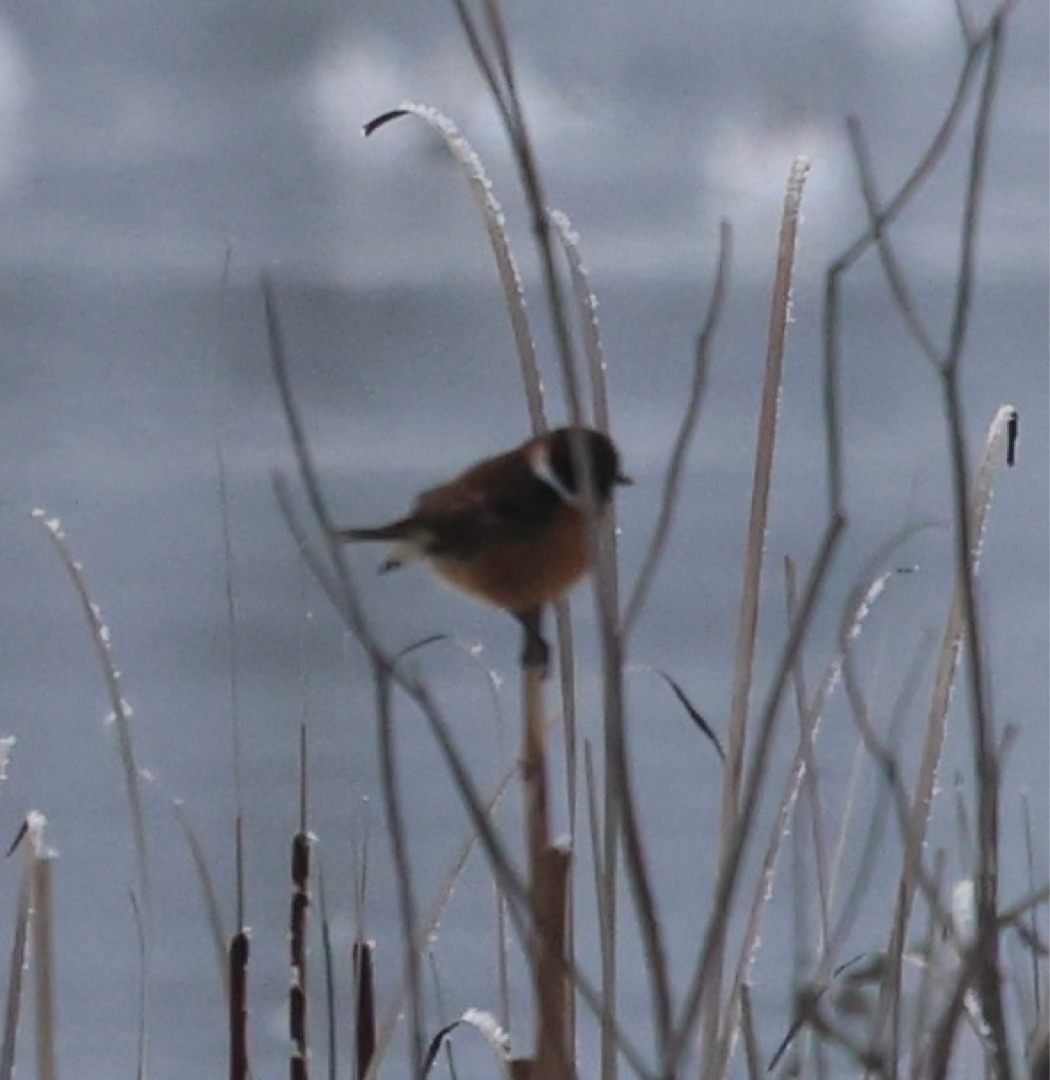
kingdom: Animalia
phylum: Chordata
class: Aves
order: Passeriformes
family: Muscicapidae
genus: Saxicola
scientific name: Saxicola rubicola
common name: Sortstrubet bynkefugl
